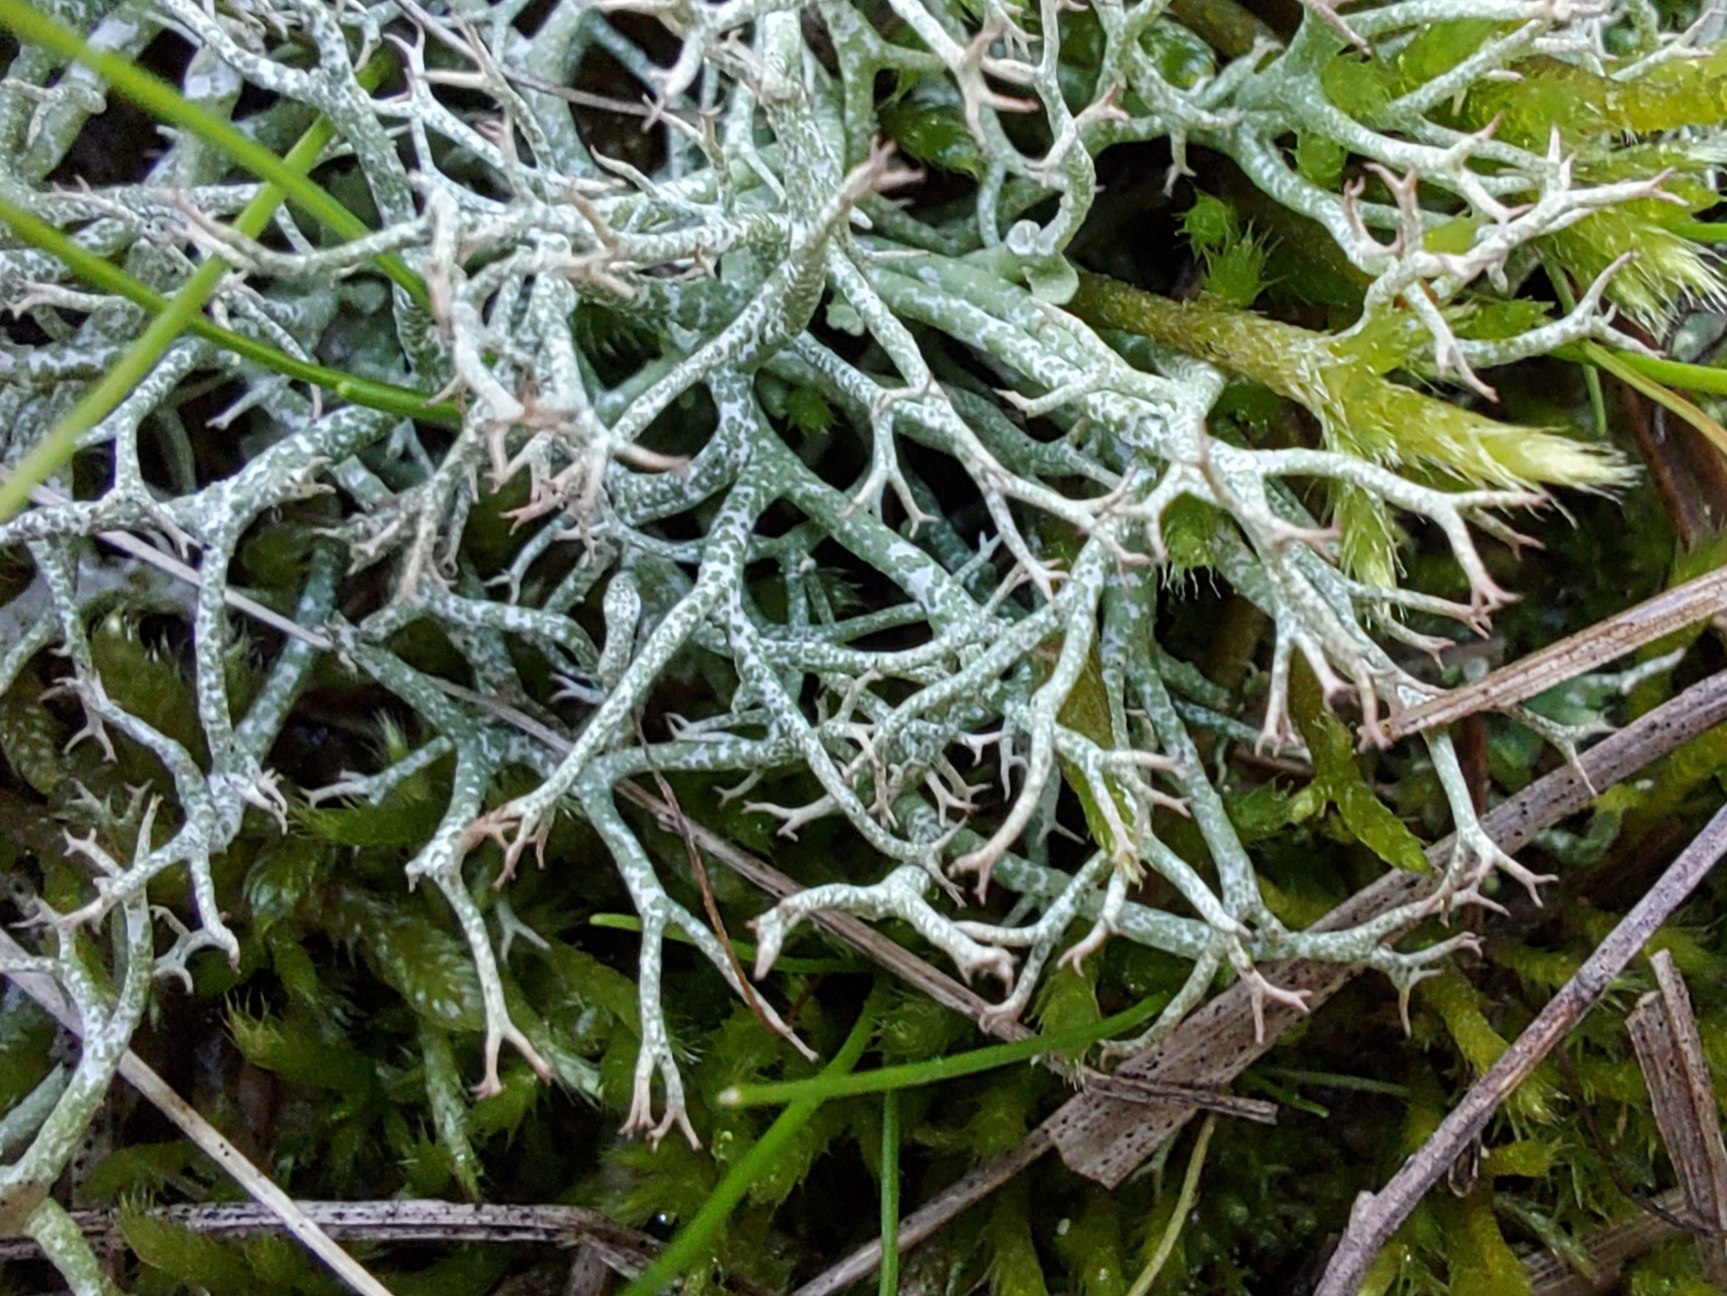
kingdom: Fungi
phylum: Ascomycota
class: Lecanoromycetes
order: Lecanorales
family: Cladoniaceae
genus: Cladonia
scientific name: Cladonia rangiformis
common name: spættet bægerlav
